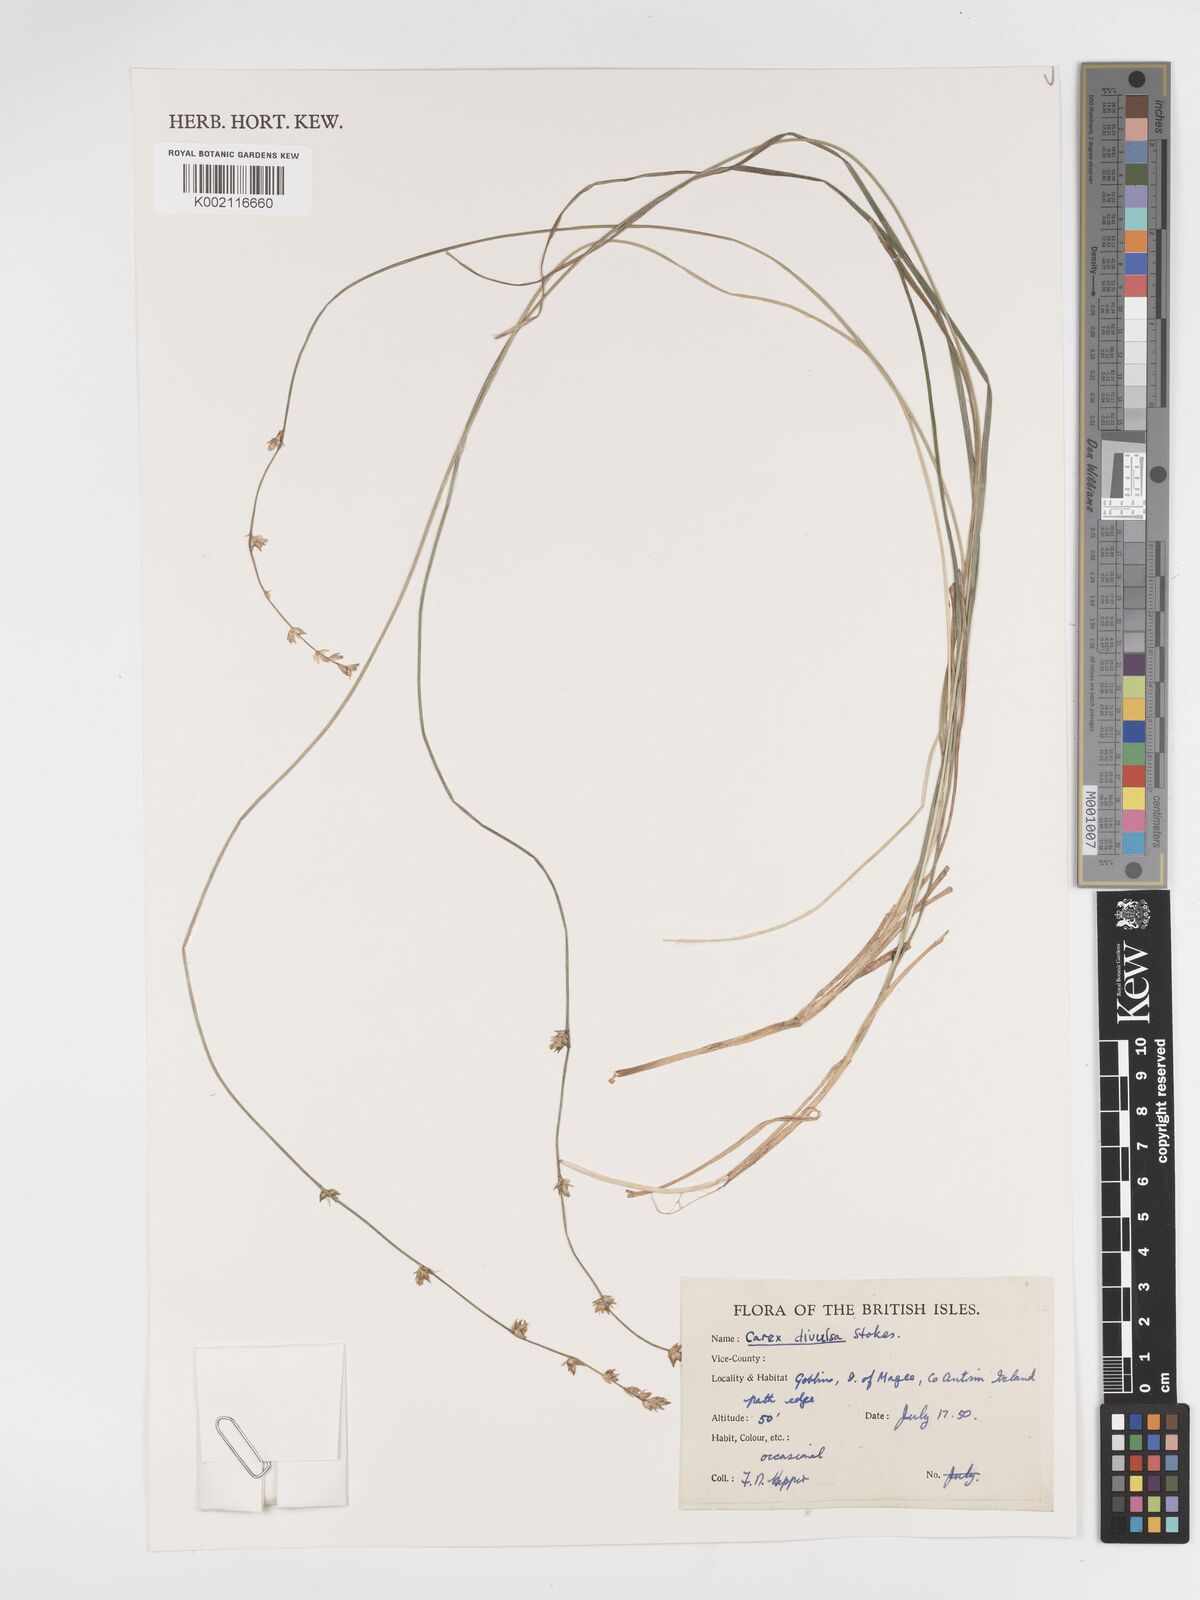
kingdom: Plantae
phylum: Tracheophyta
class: Liliopsida
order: Poales
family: Cyperaceae
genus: Carex
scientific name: Carex divulsa
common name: Grassland sedge
